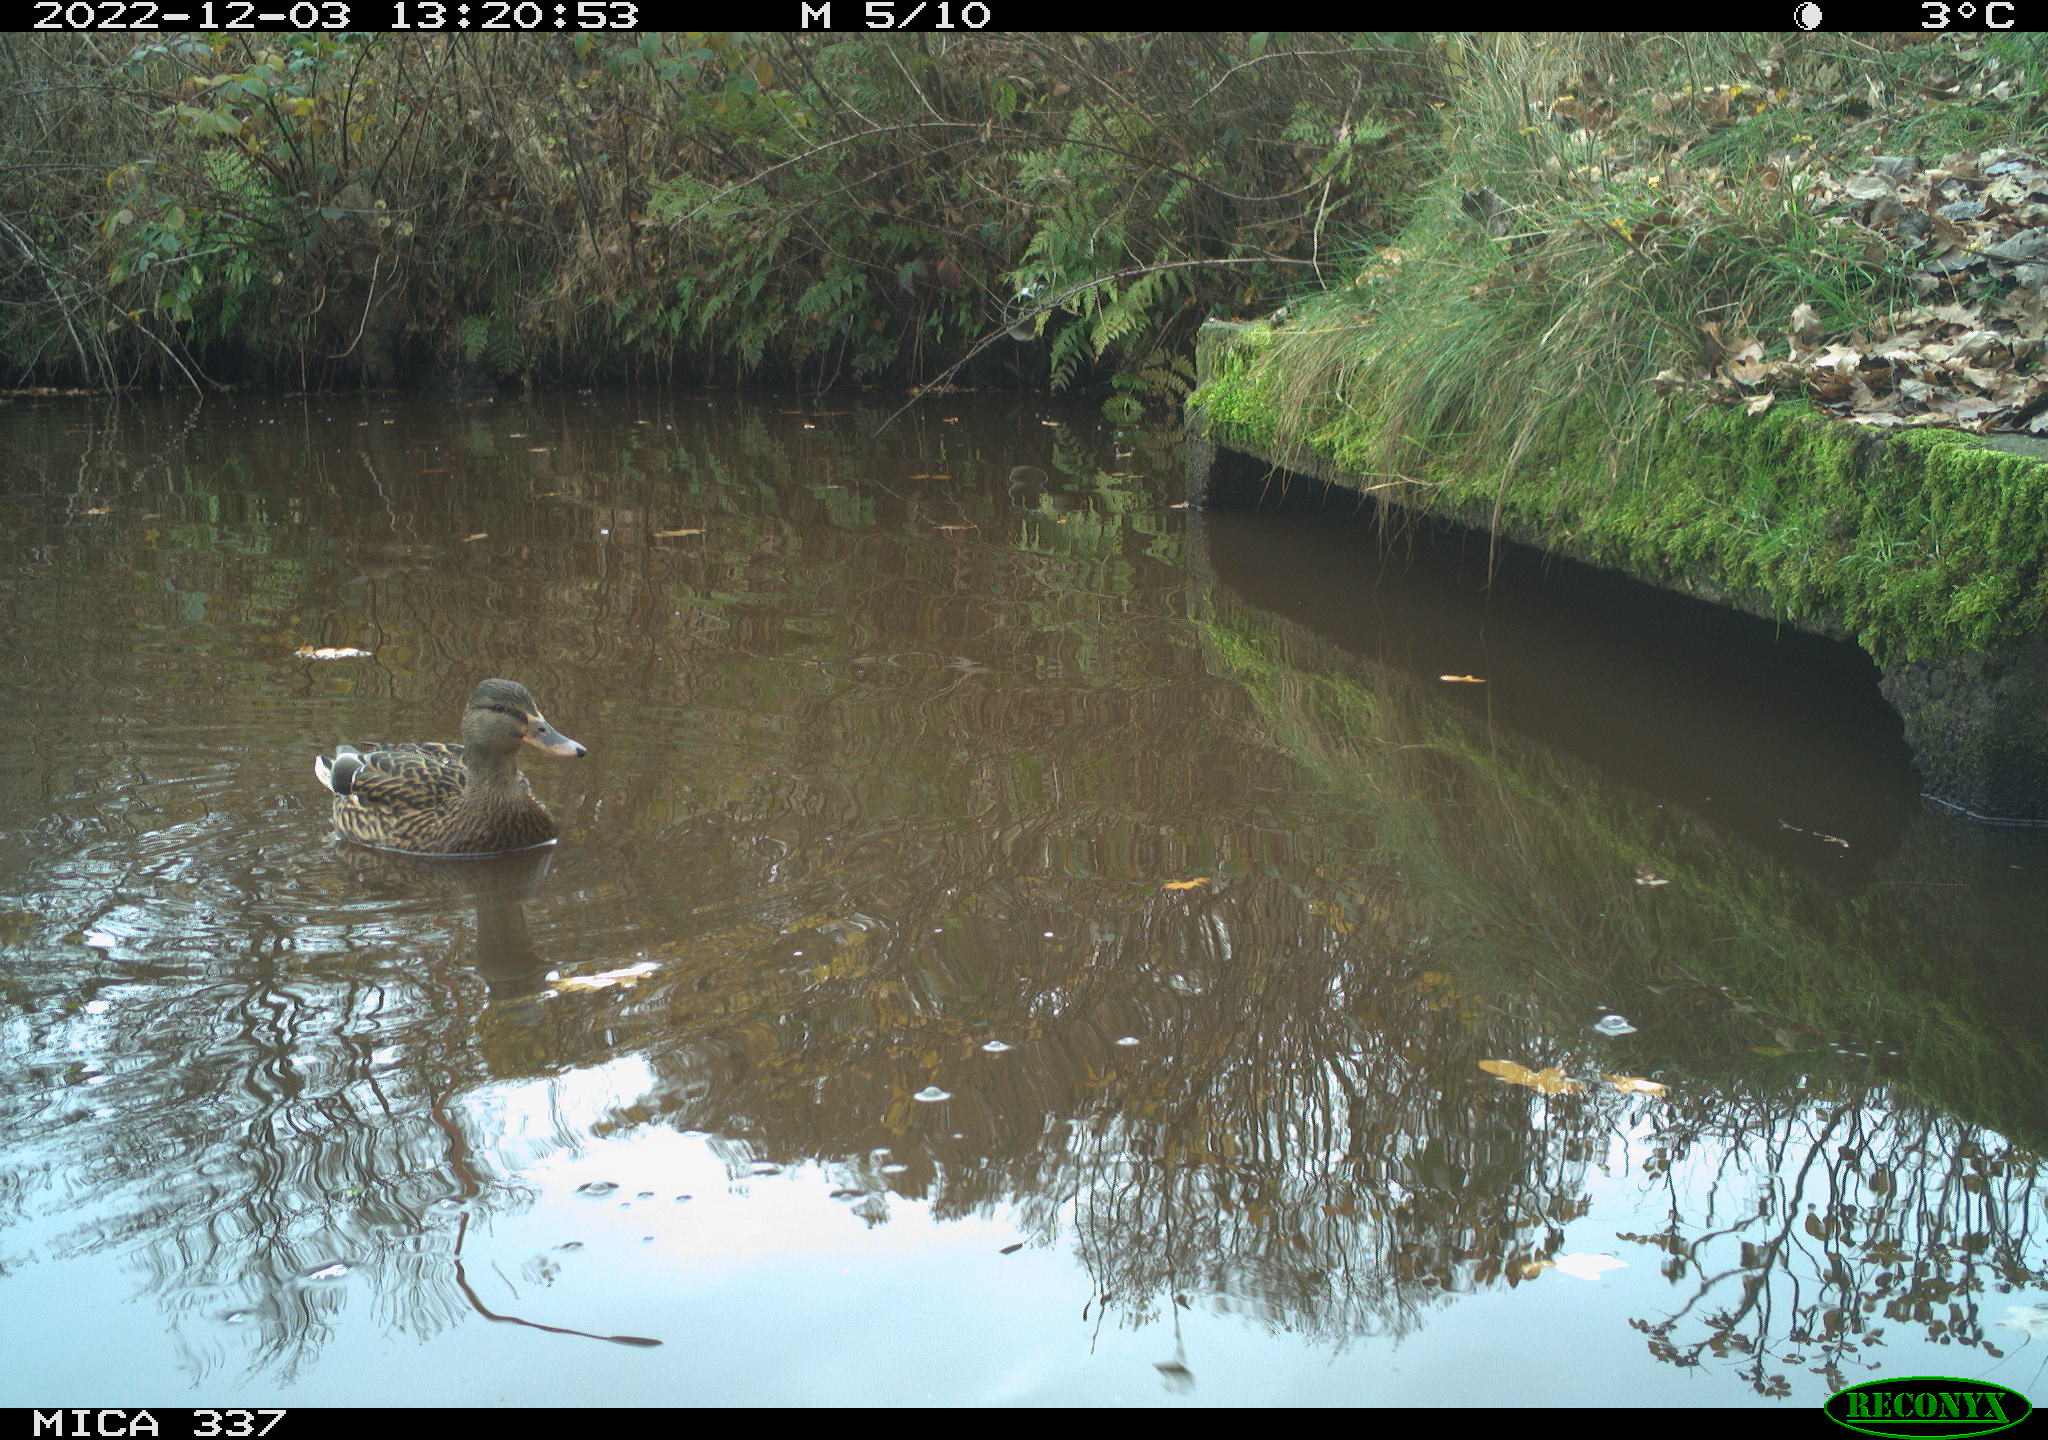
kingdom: Animalia
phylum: Chordata
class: Aves
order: Anseriformes
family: Anatidae
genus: Anas
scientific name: Anas
